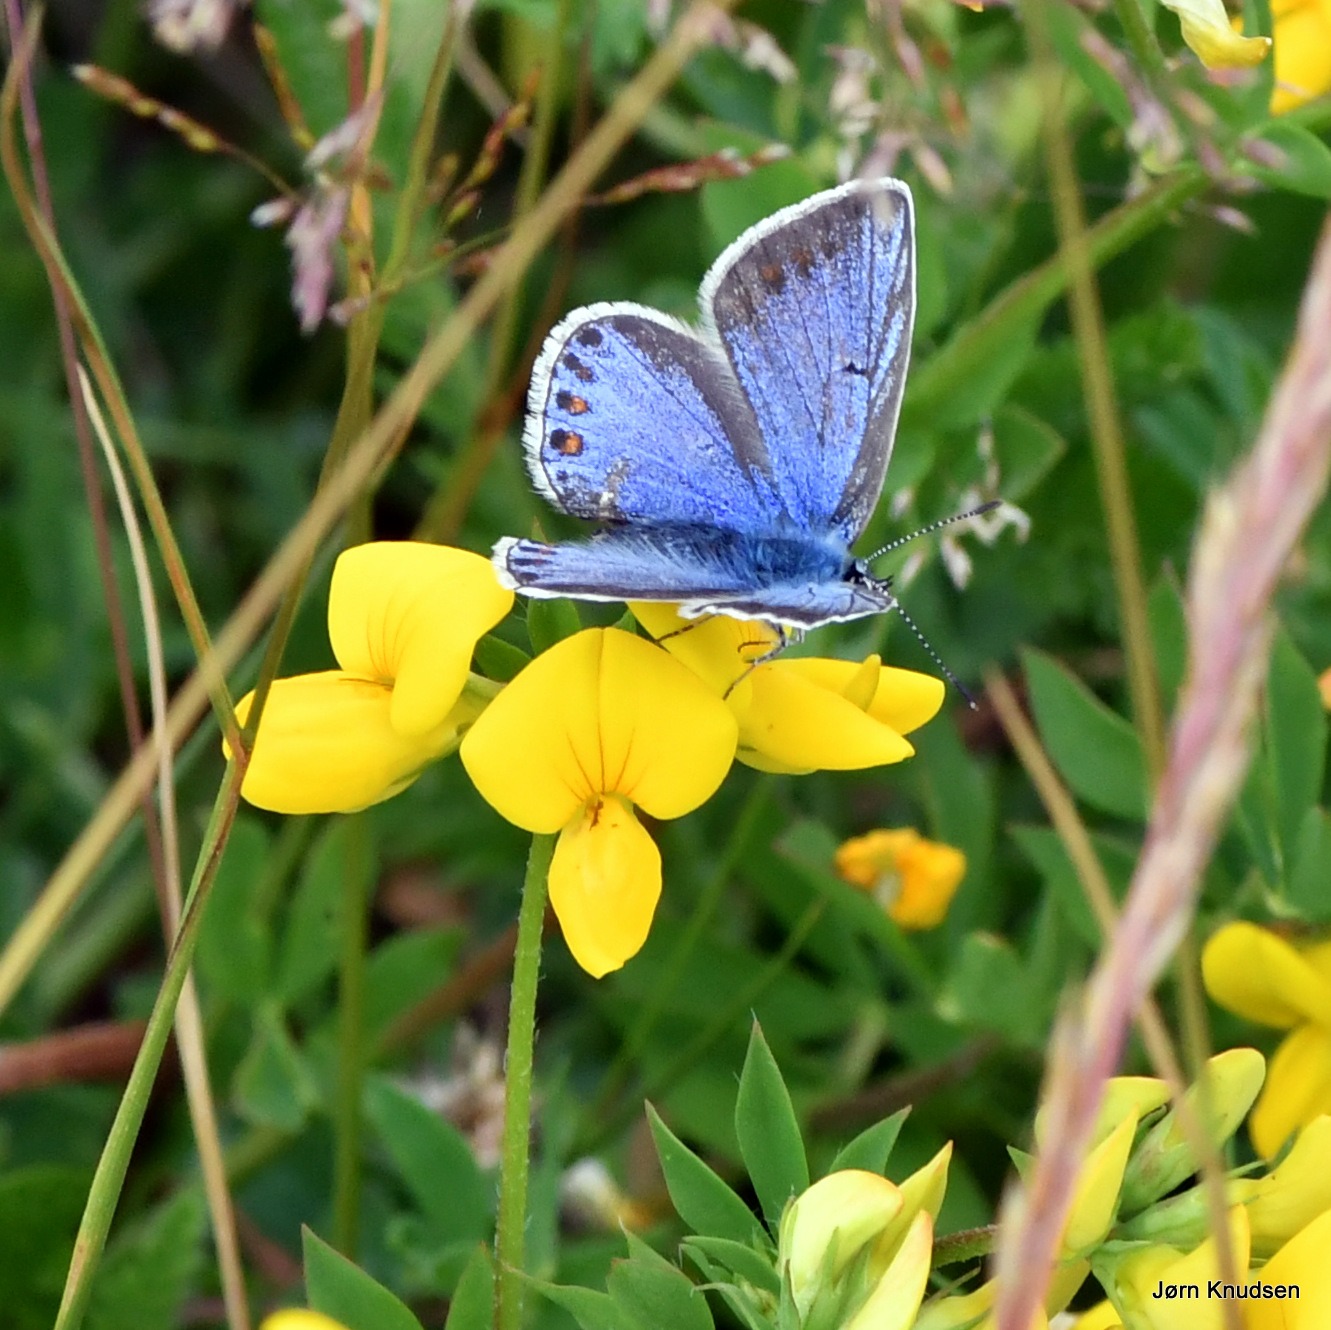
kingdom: Animalia
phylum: Arthropoda
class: Insecta
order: Lepidoptera
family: Lycaenidae
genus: Polyommatus
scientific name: Polyommatus icarus
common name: Almindelig blåfugl
